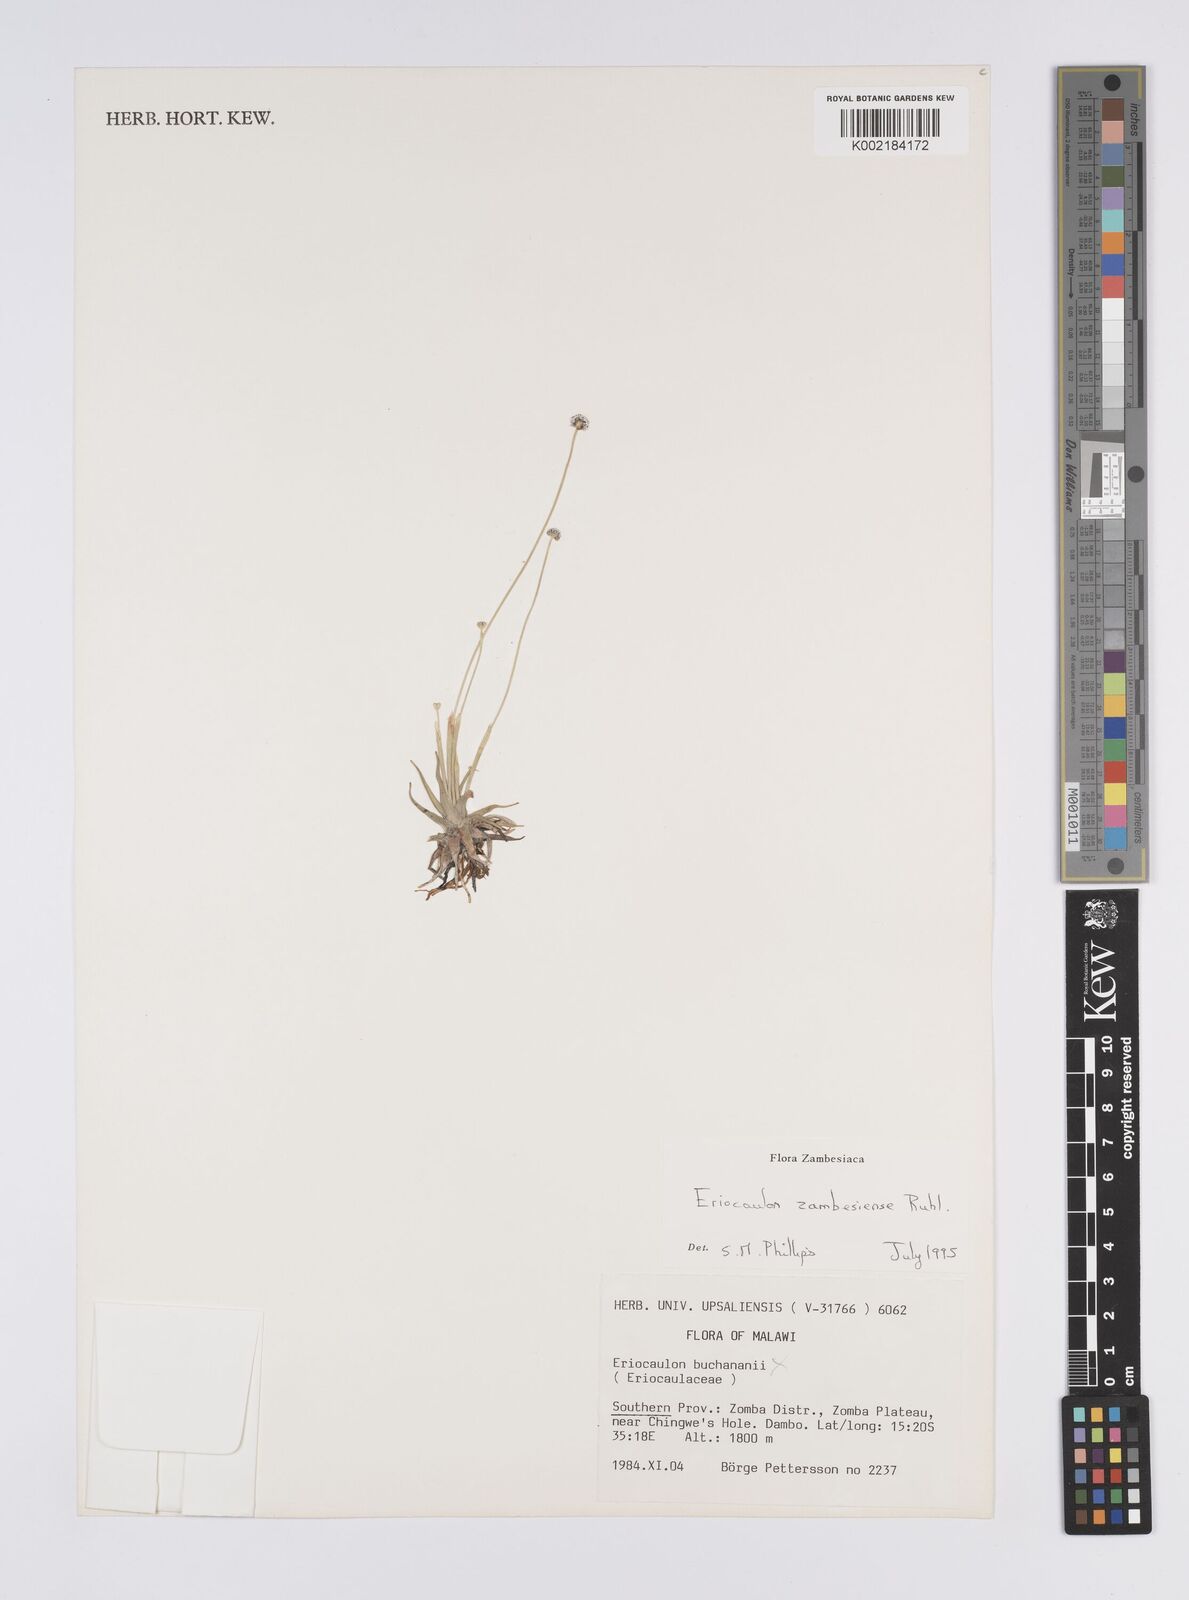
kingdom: Plantae
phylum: Tracheophyta
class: Liliopsida
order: Poales
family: Eriocaulaceae
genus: Eriocaulon
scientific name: Eriocaulon zambesiense
